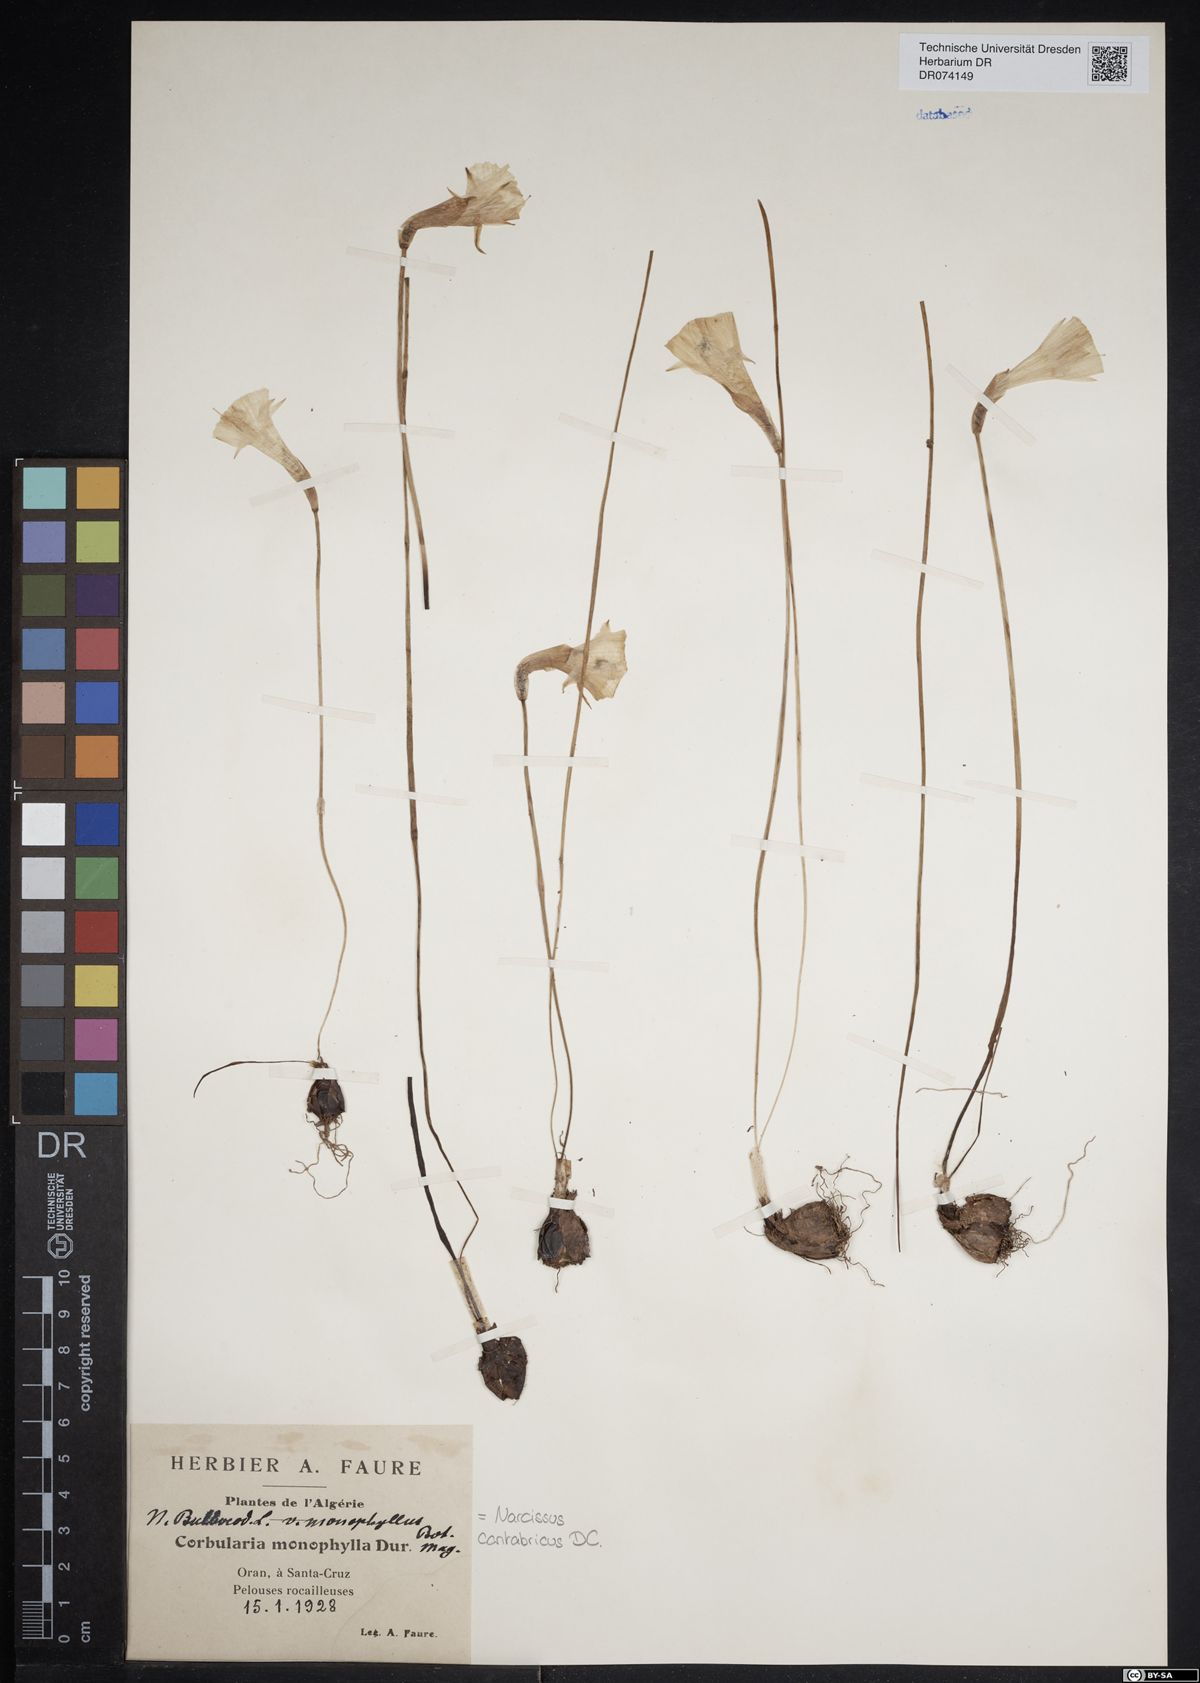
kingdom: Plantae
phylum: Tracheophyta
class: Liliopsida
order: Asparagales
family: Amaryllidaceae
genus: Narcissus
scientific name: Narcissus cantabricus
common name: White hoop petticoat daffodil
